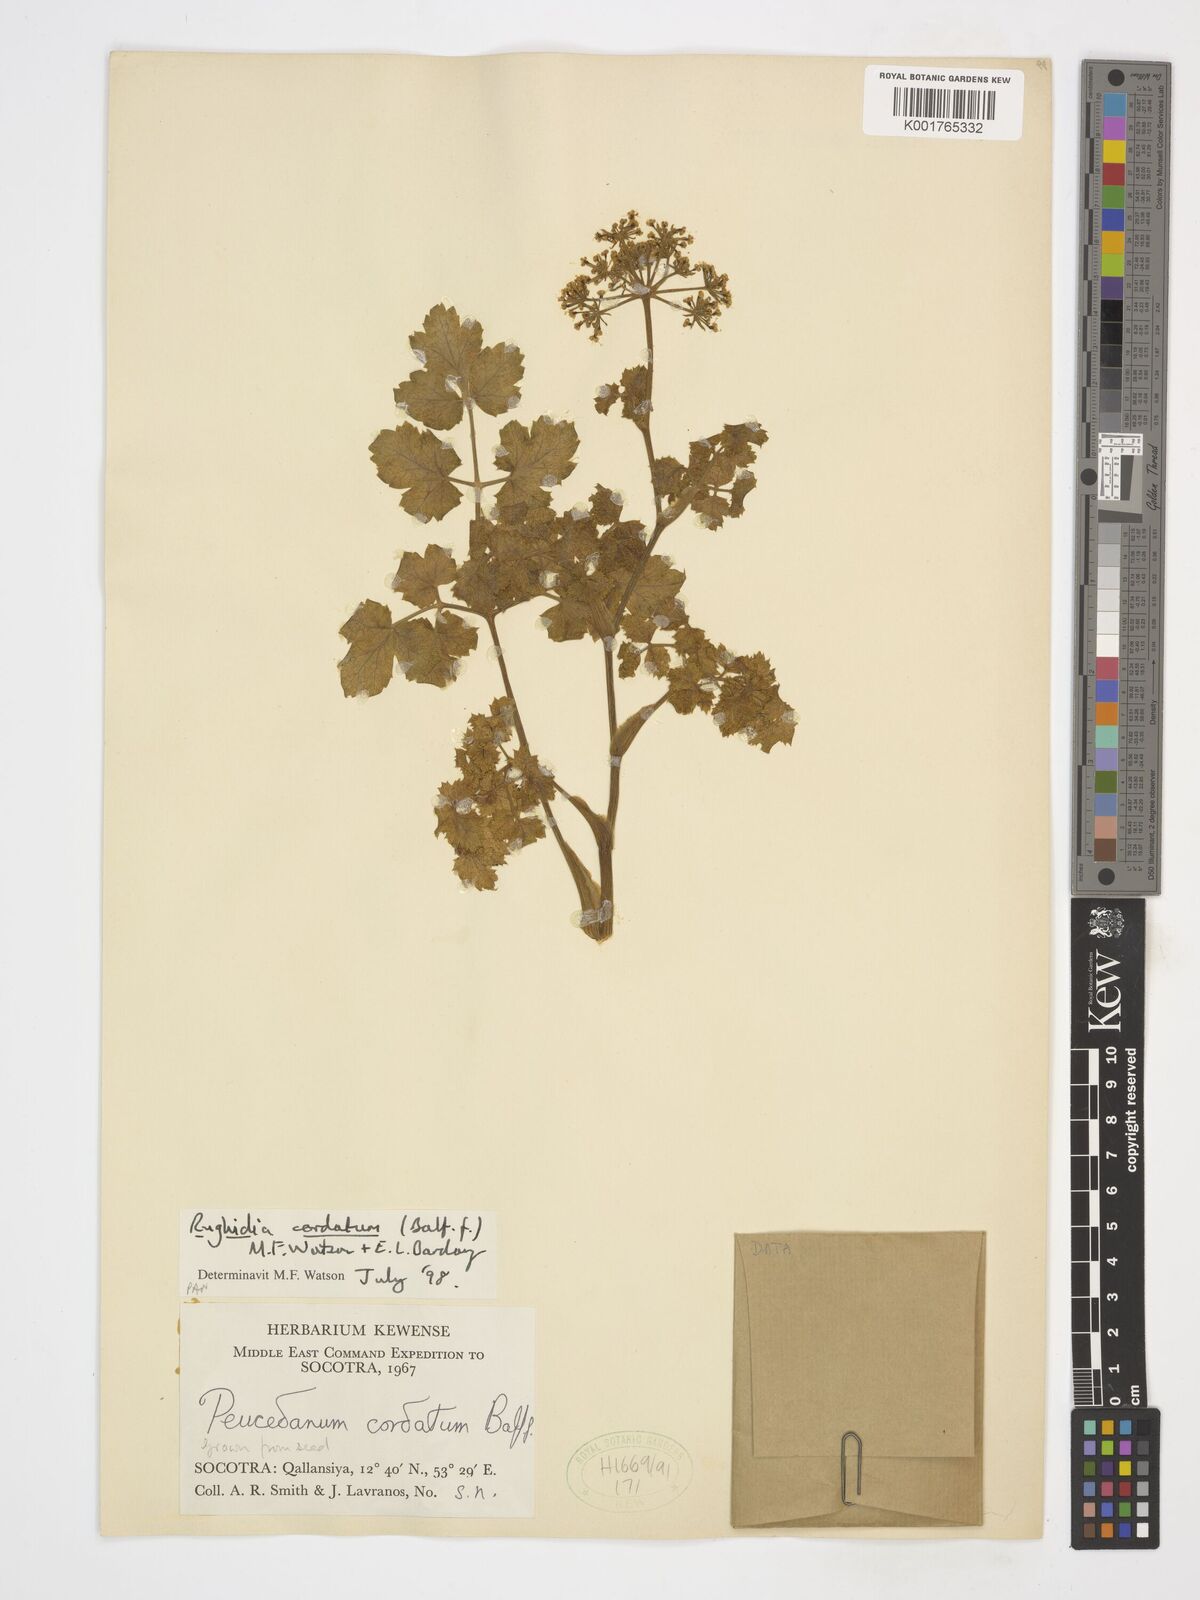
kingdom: Plantae
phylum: Tracheophyta
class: Magnoliopsida
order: Apiales
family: Apiaceae
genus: Rughidia
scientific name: Rughidia cordata
